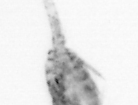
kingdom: Animalia
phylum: Arthropoda
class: Copepoda
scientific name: Copepoda
